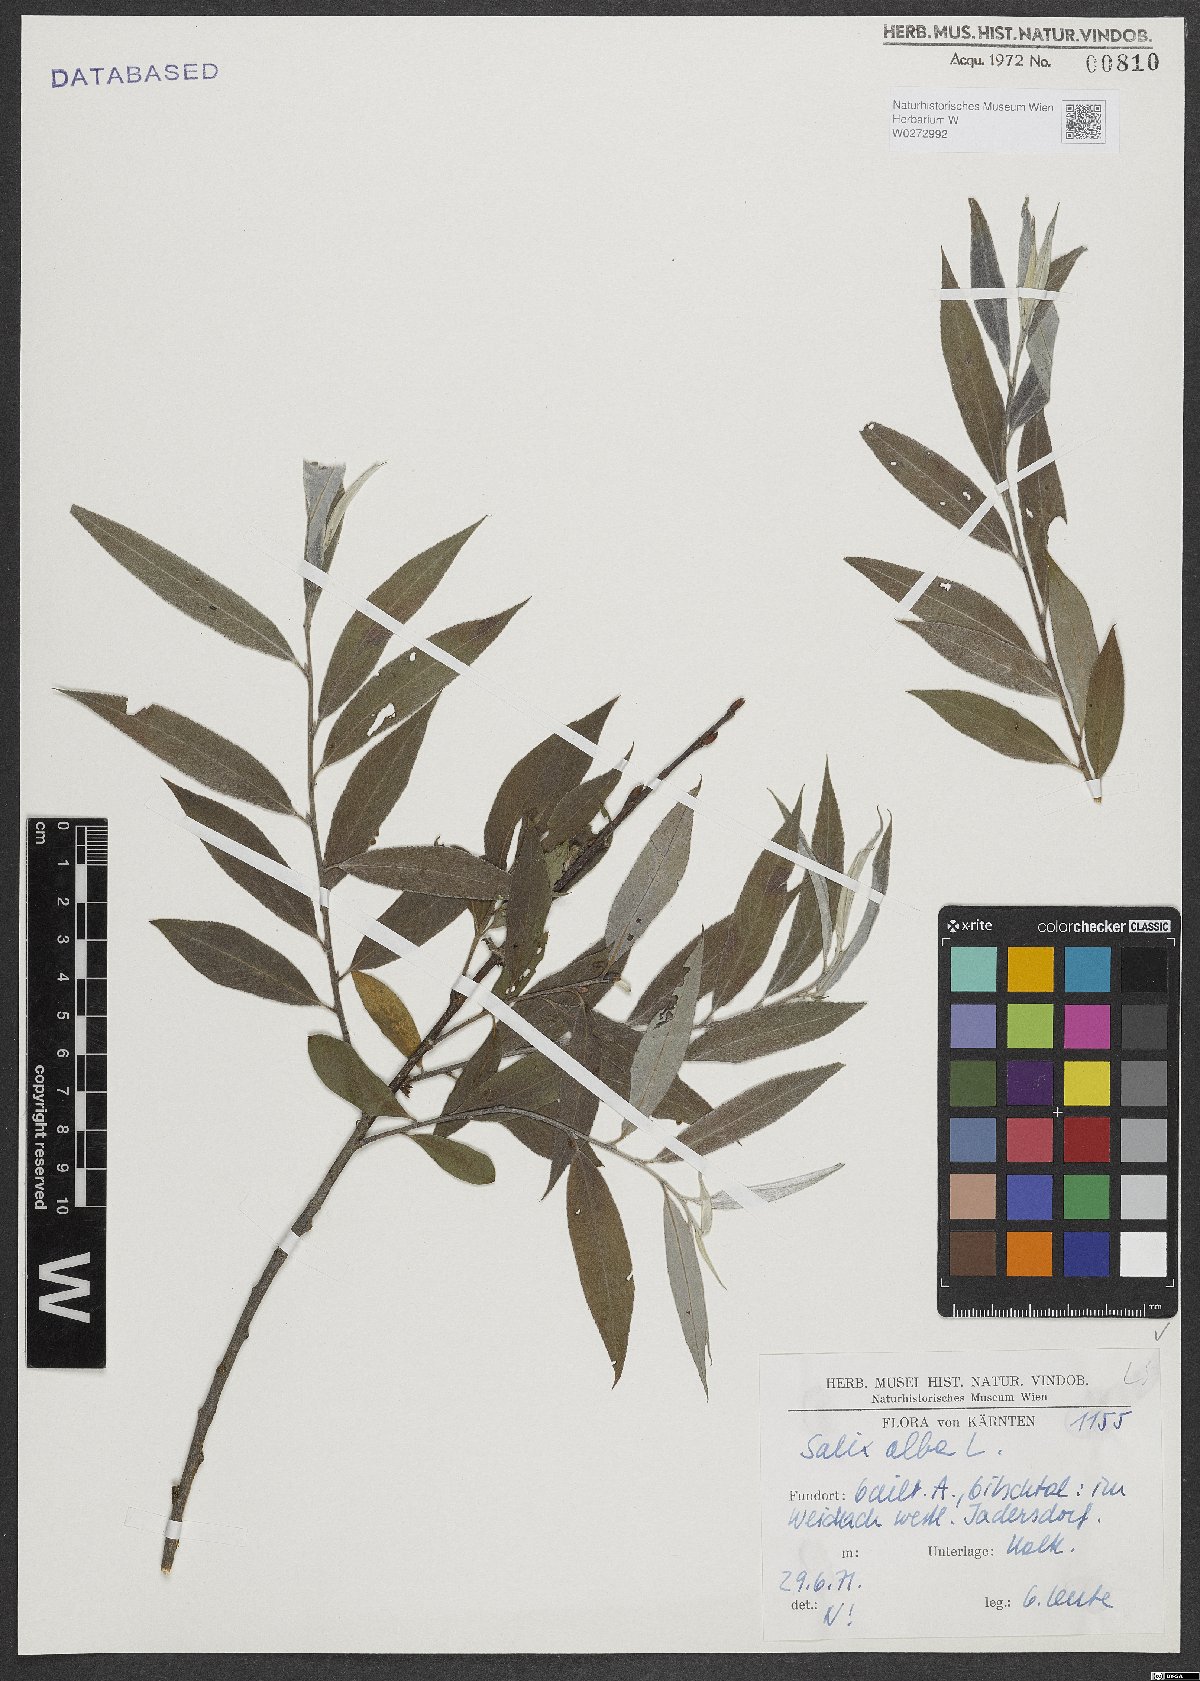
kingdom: Plantae
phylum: Tracheophyta
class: Magnoliopsida
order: Malpighiales
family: Salicaceae
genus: Salix
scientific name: Salix alba
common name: White willow
